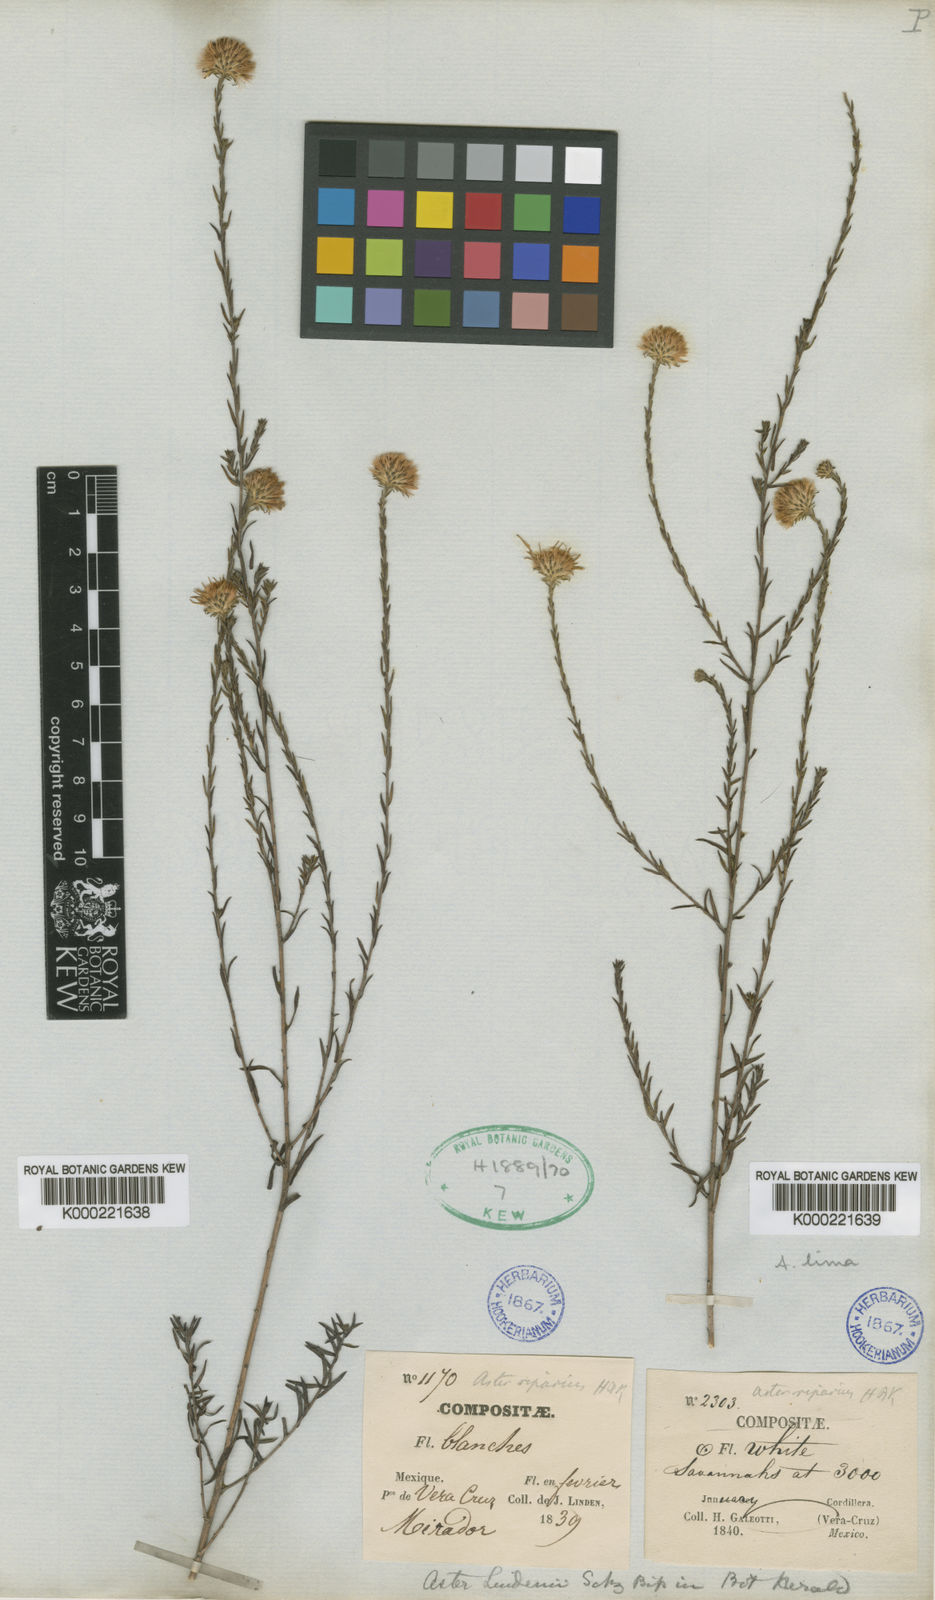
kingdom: Plantae
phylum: Tracheophyta
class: Magnoliopsida
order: Asterales
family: Asteraceae
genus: Symphyotrichum
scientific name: Symphyotrichum moranense
